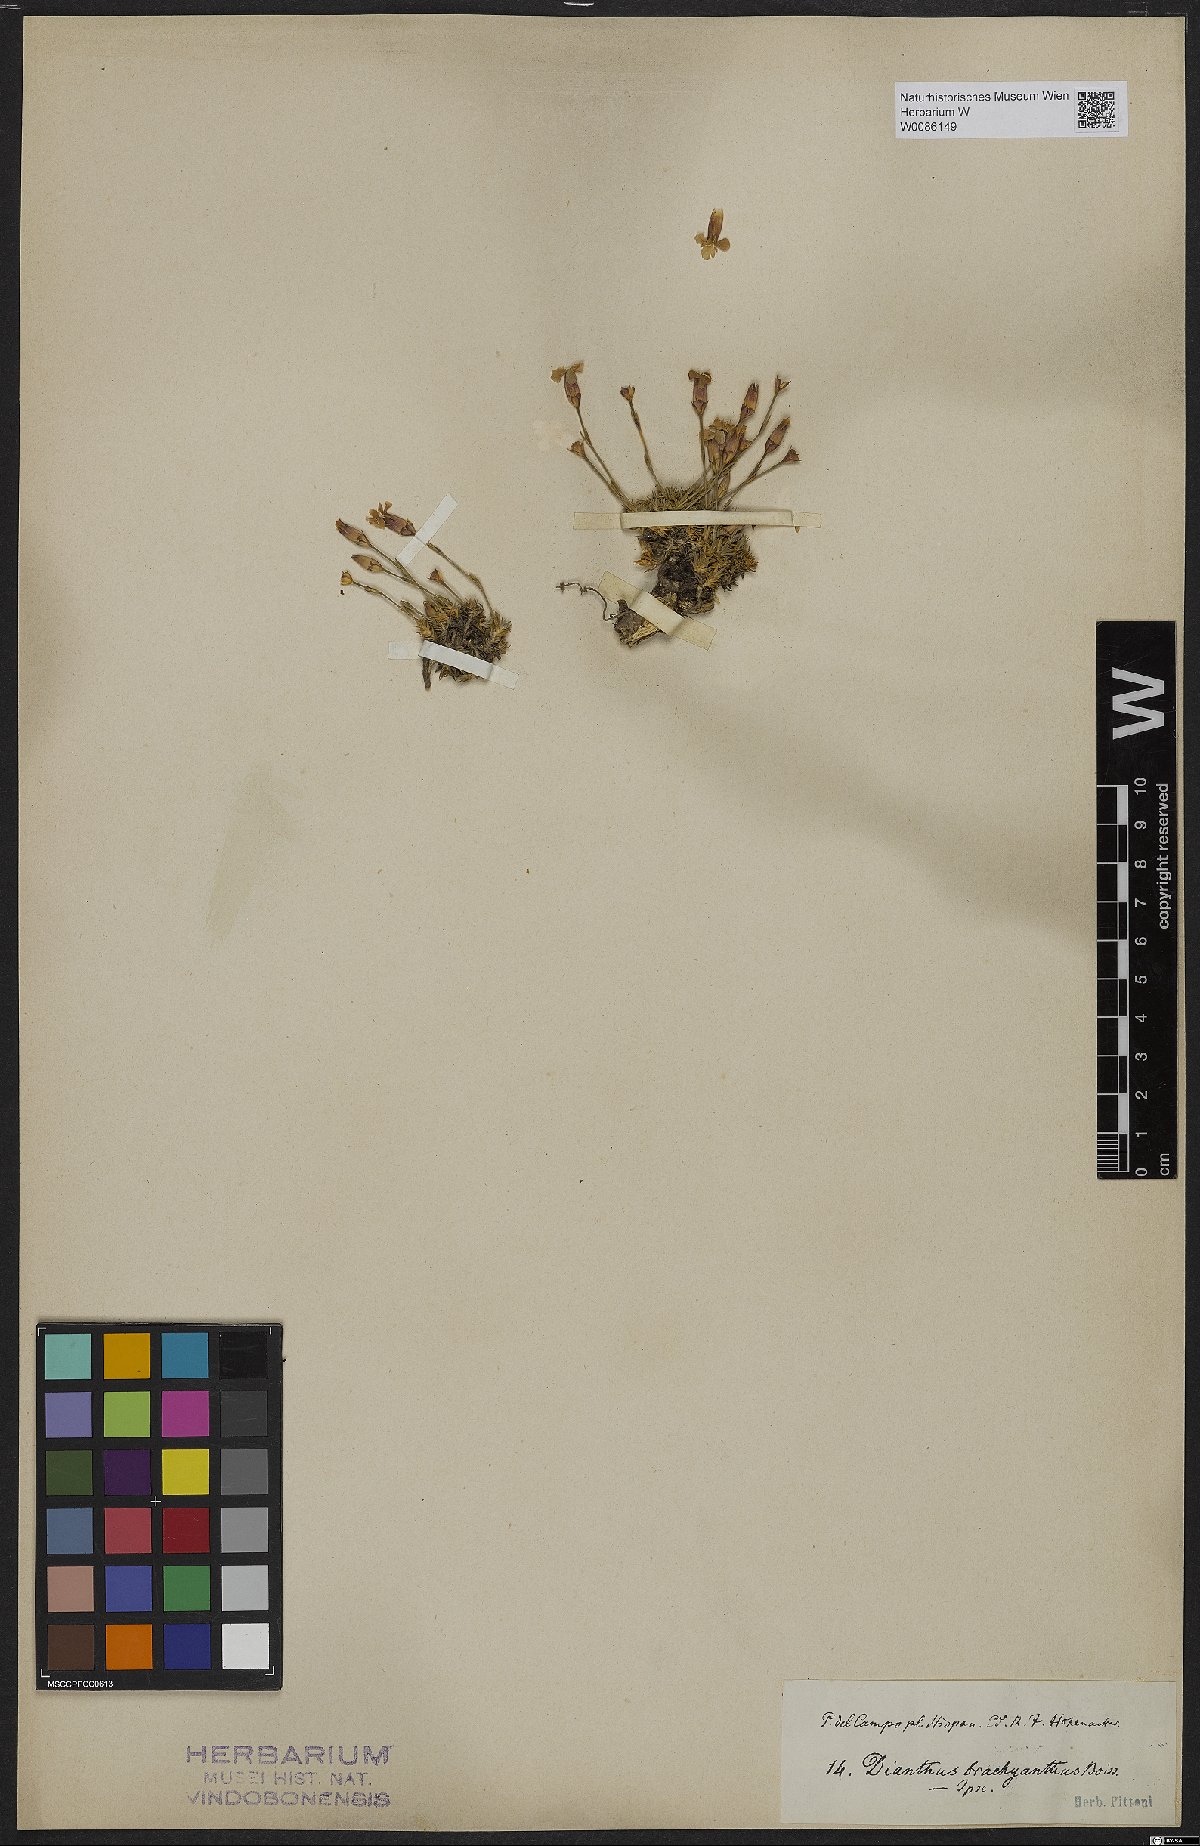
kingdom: Plantae
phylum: Tracheophyta
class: Magnoliopsida
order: Caryophyllales
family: Caryophyllaceae
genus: Dianthus
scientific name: Dianthus pungens
